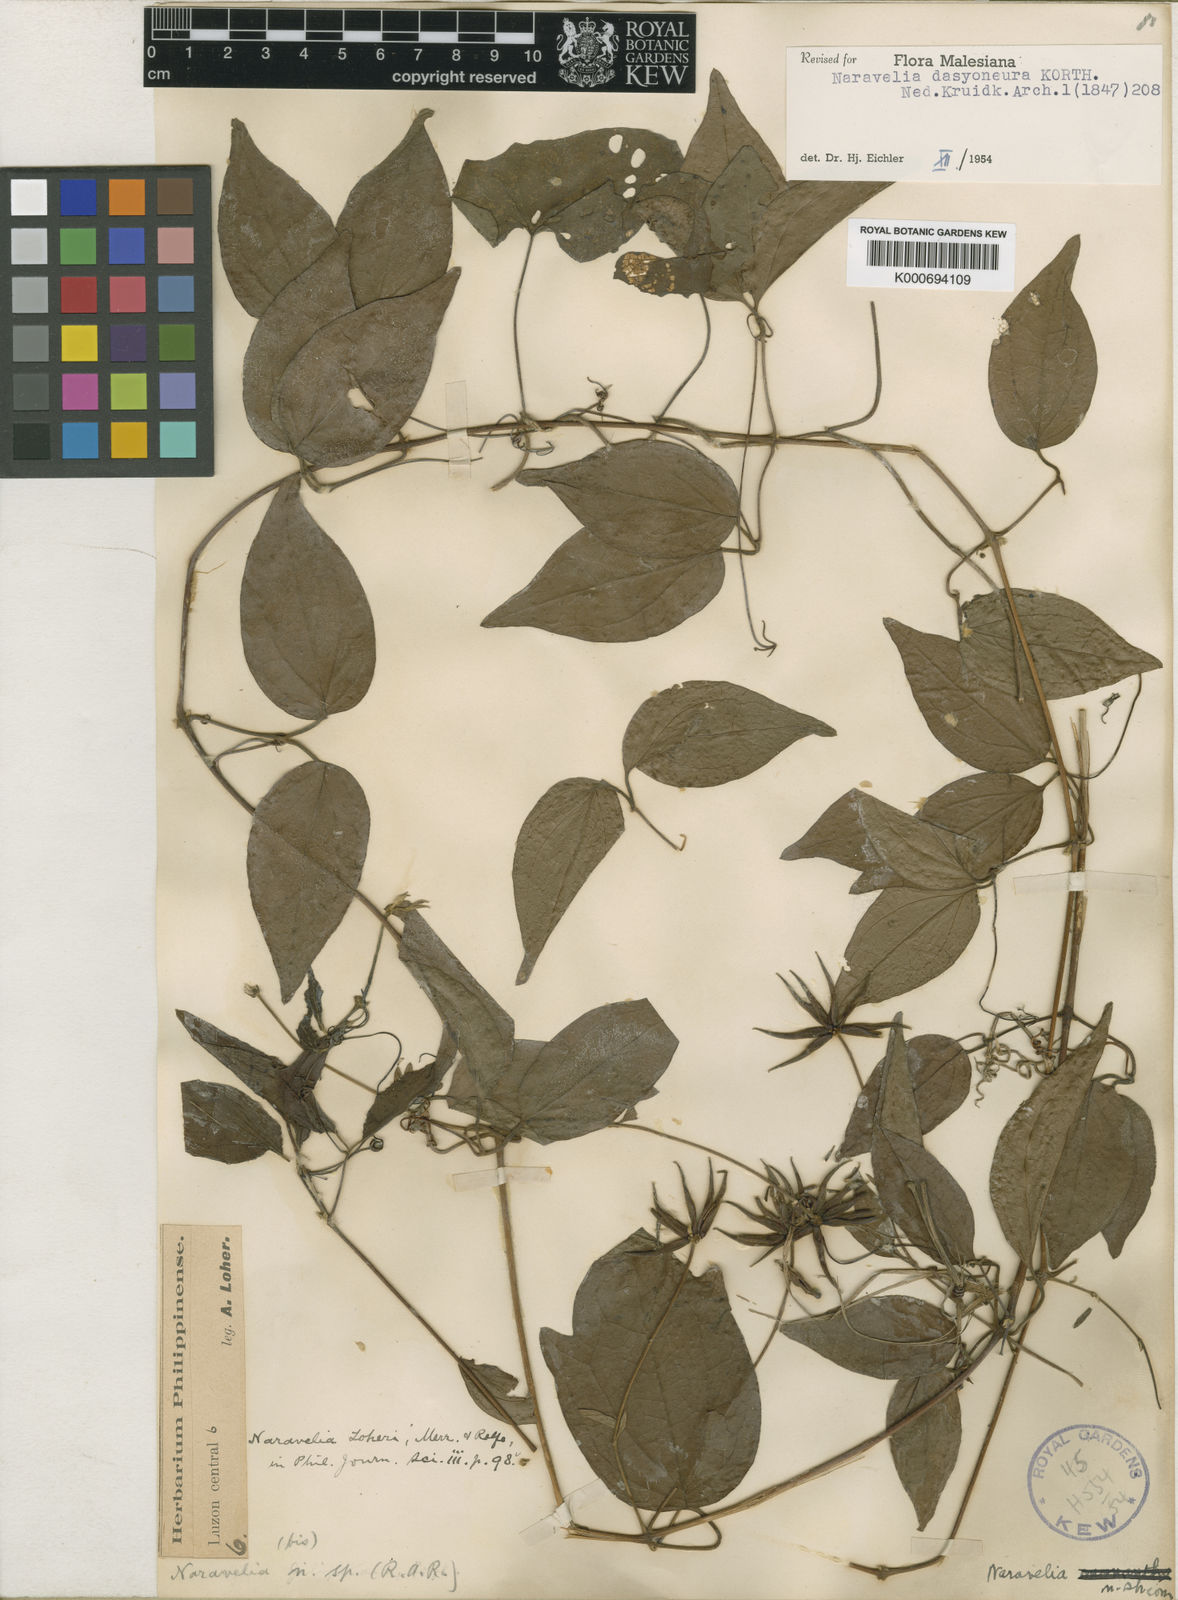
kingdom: Plantae
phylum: Tracheophyta
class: Magnoliopsida
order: Ranunculales
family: Ranunculaceae
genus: Clematis
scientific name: Clematis dasyoneura
